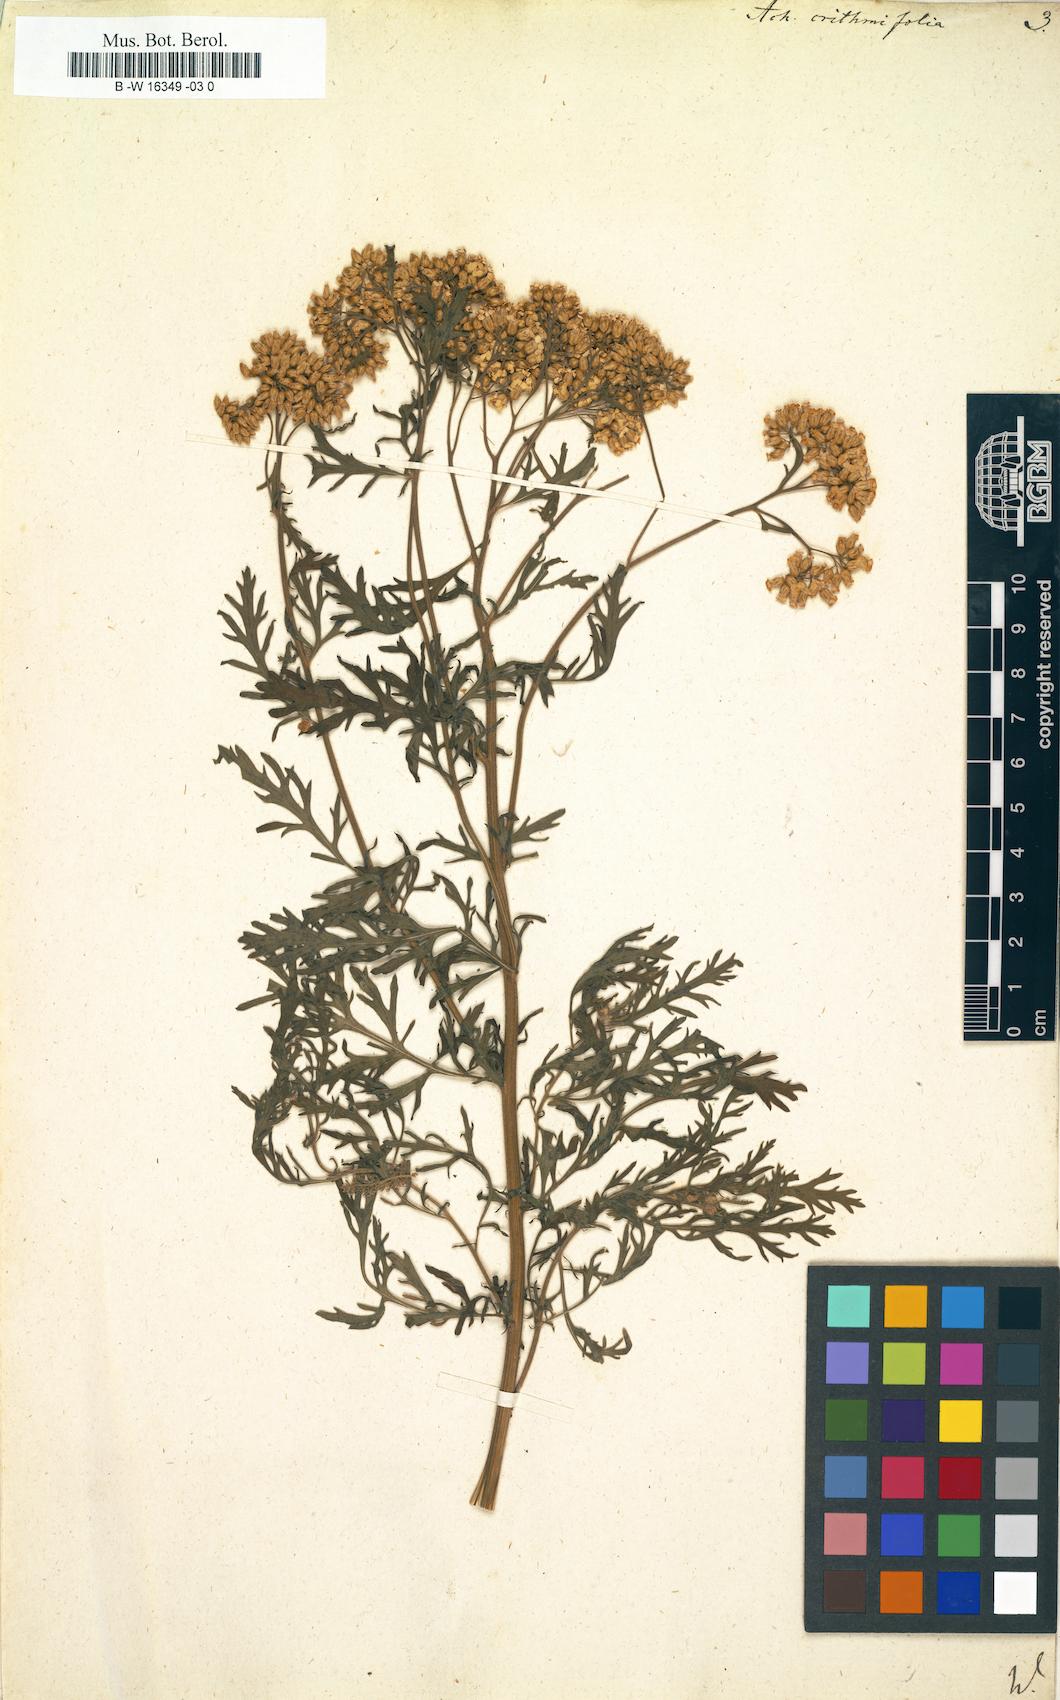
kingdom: Plantae
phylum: Tracheophyta
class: Magnoliopsida
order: Asterales
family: Asteraceae
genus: Achillea
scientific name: Achillea crithmifolia
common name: Yarrow
